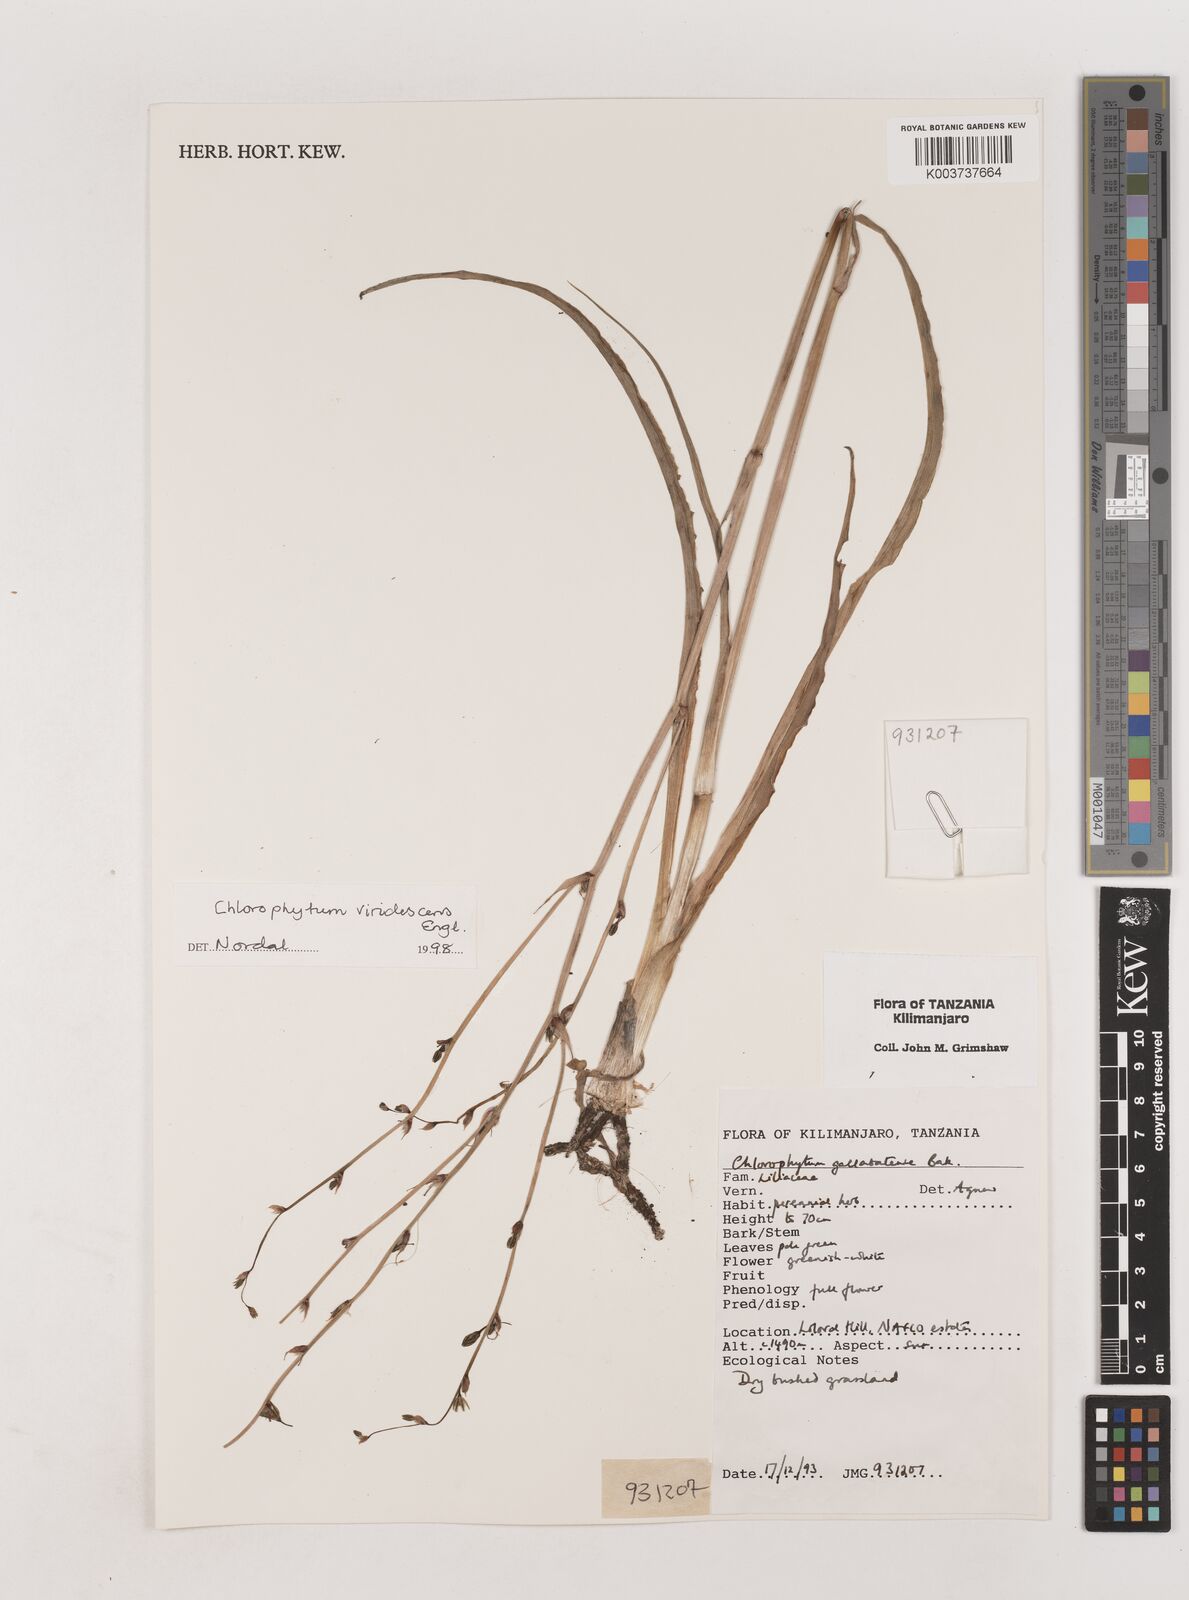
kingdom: Plantae
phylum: Tracheophyta
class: Liliopsida
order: Asparagales
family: Asparagaceae
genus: Chlorophytum
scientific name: Chlorophytum viridescens
